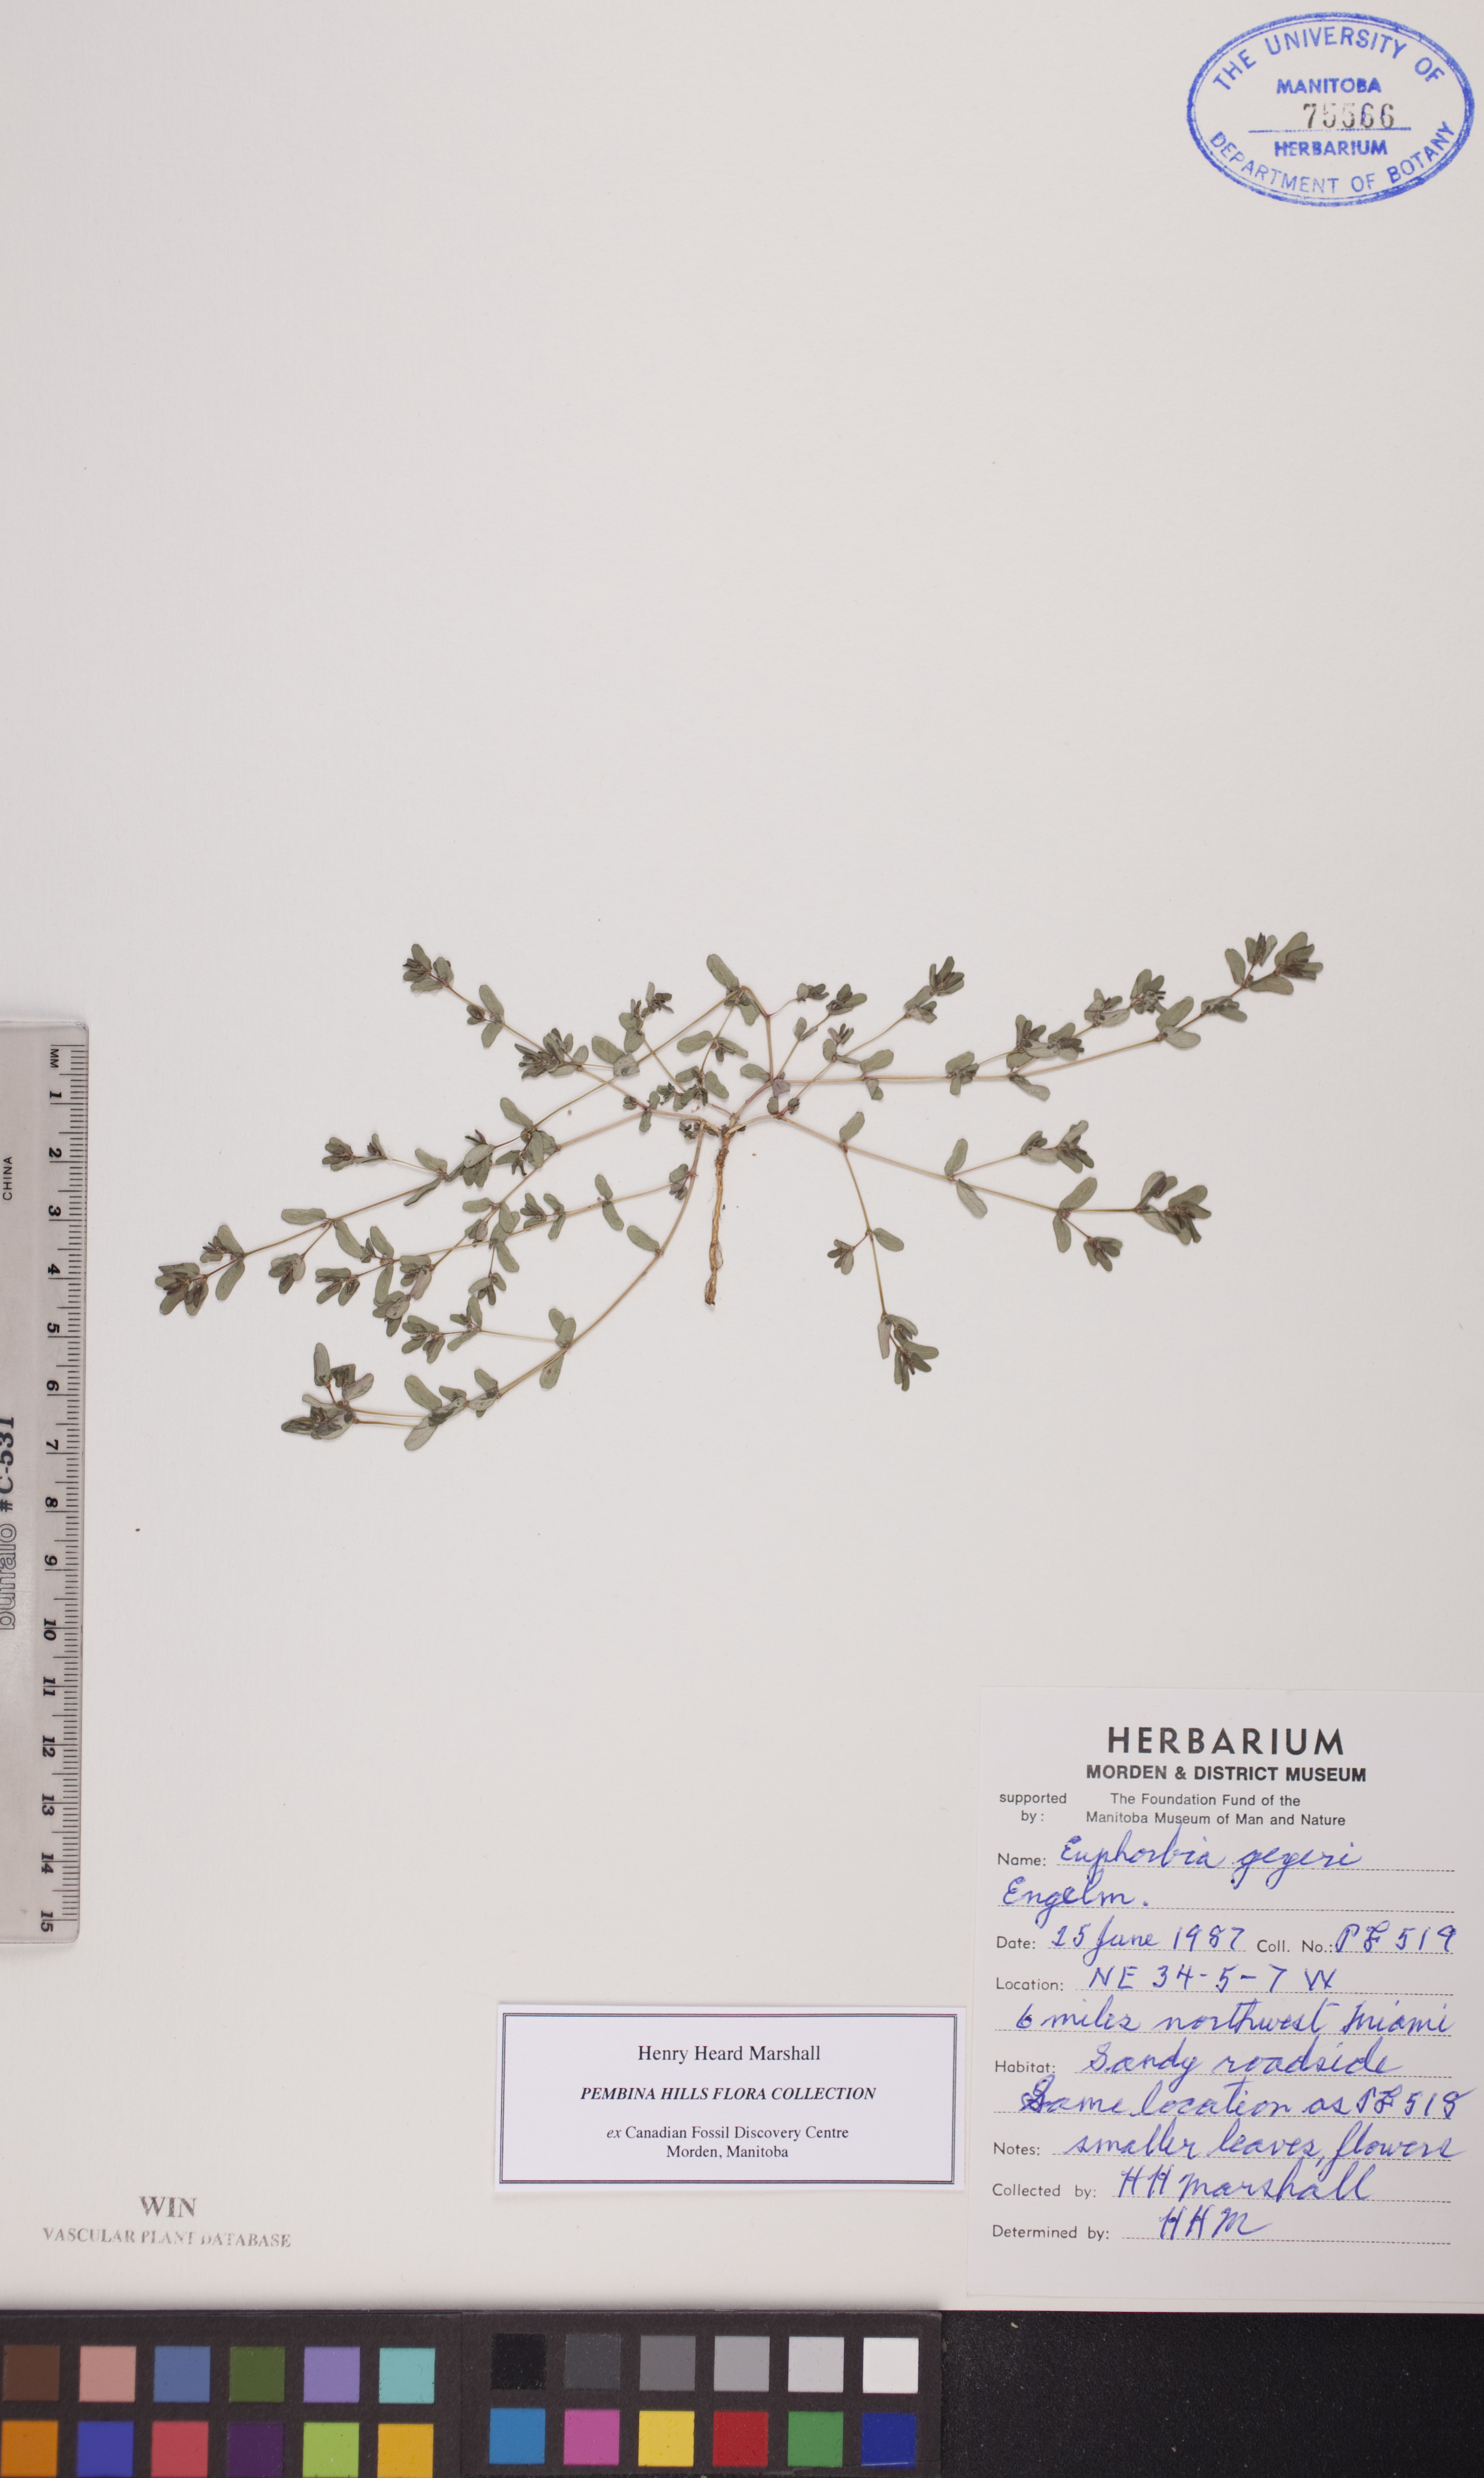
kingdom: Plantae
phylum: Tracheophyta
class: Magnoliopsida
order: Malpighiales
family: Euphorbiaceae
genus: Euphorbia
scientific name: Euphorbia geyeri
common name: Geyer's spurge
